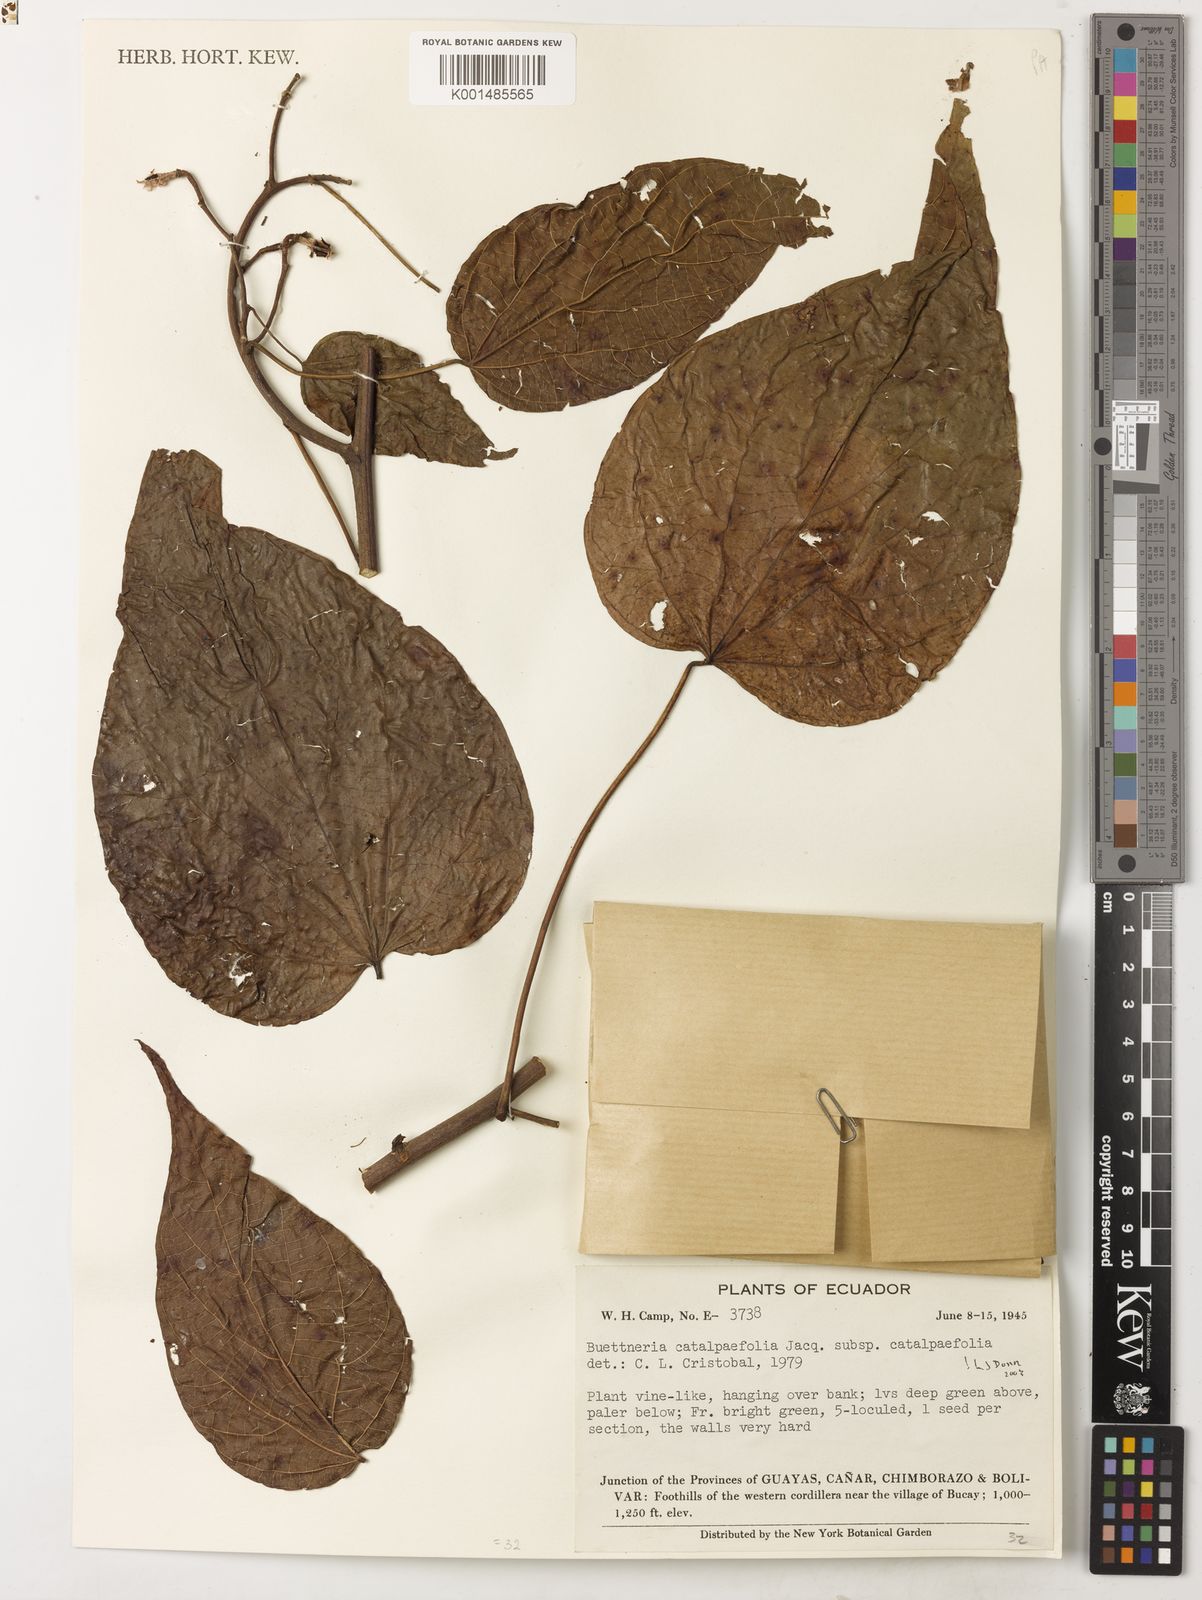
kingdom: Plantae
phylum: Tracheophyta
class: Magnoliopsida
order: Malvales
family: Malvaceae
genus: Byttneria
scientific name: Byttneria catalpifolia
